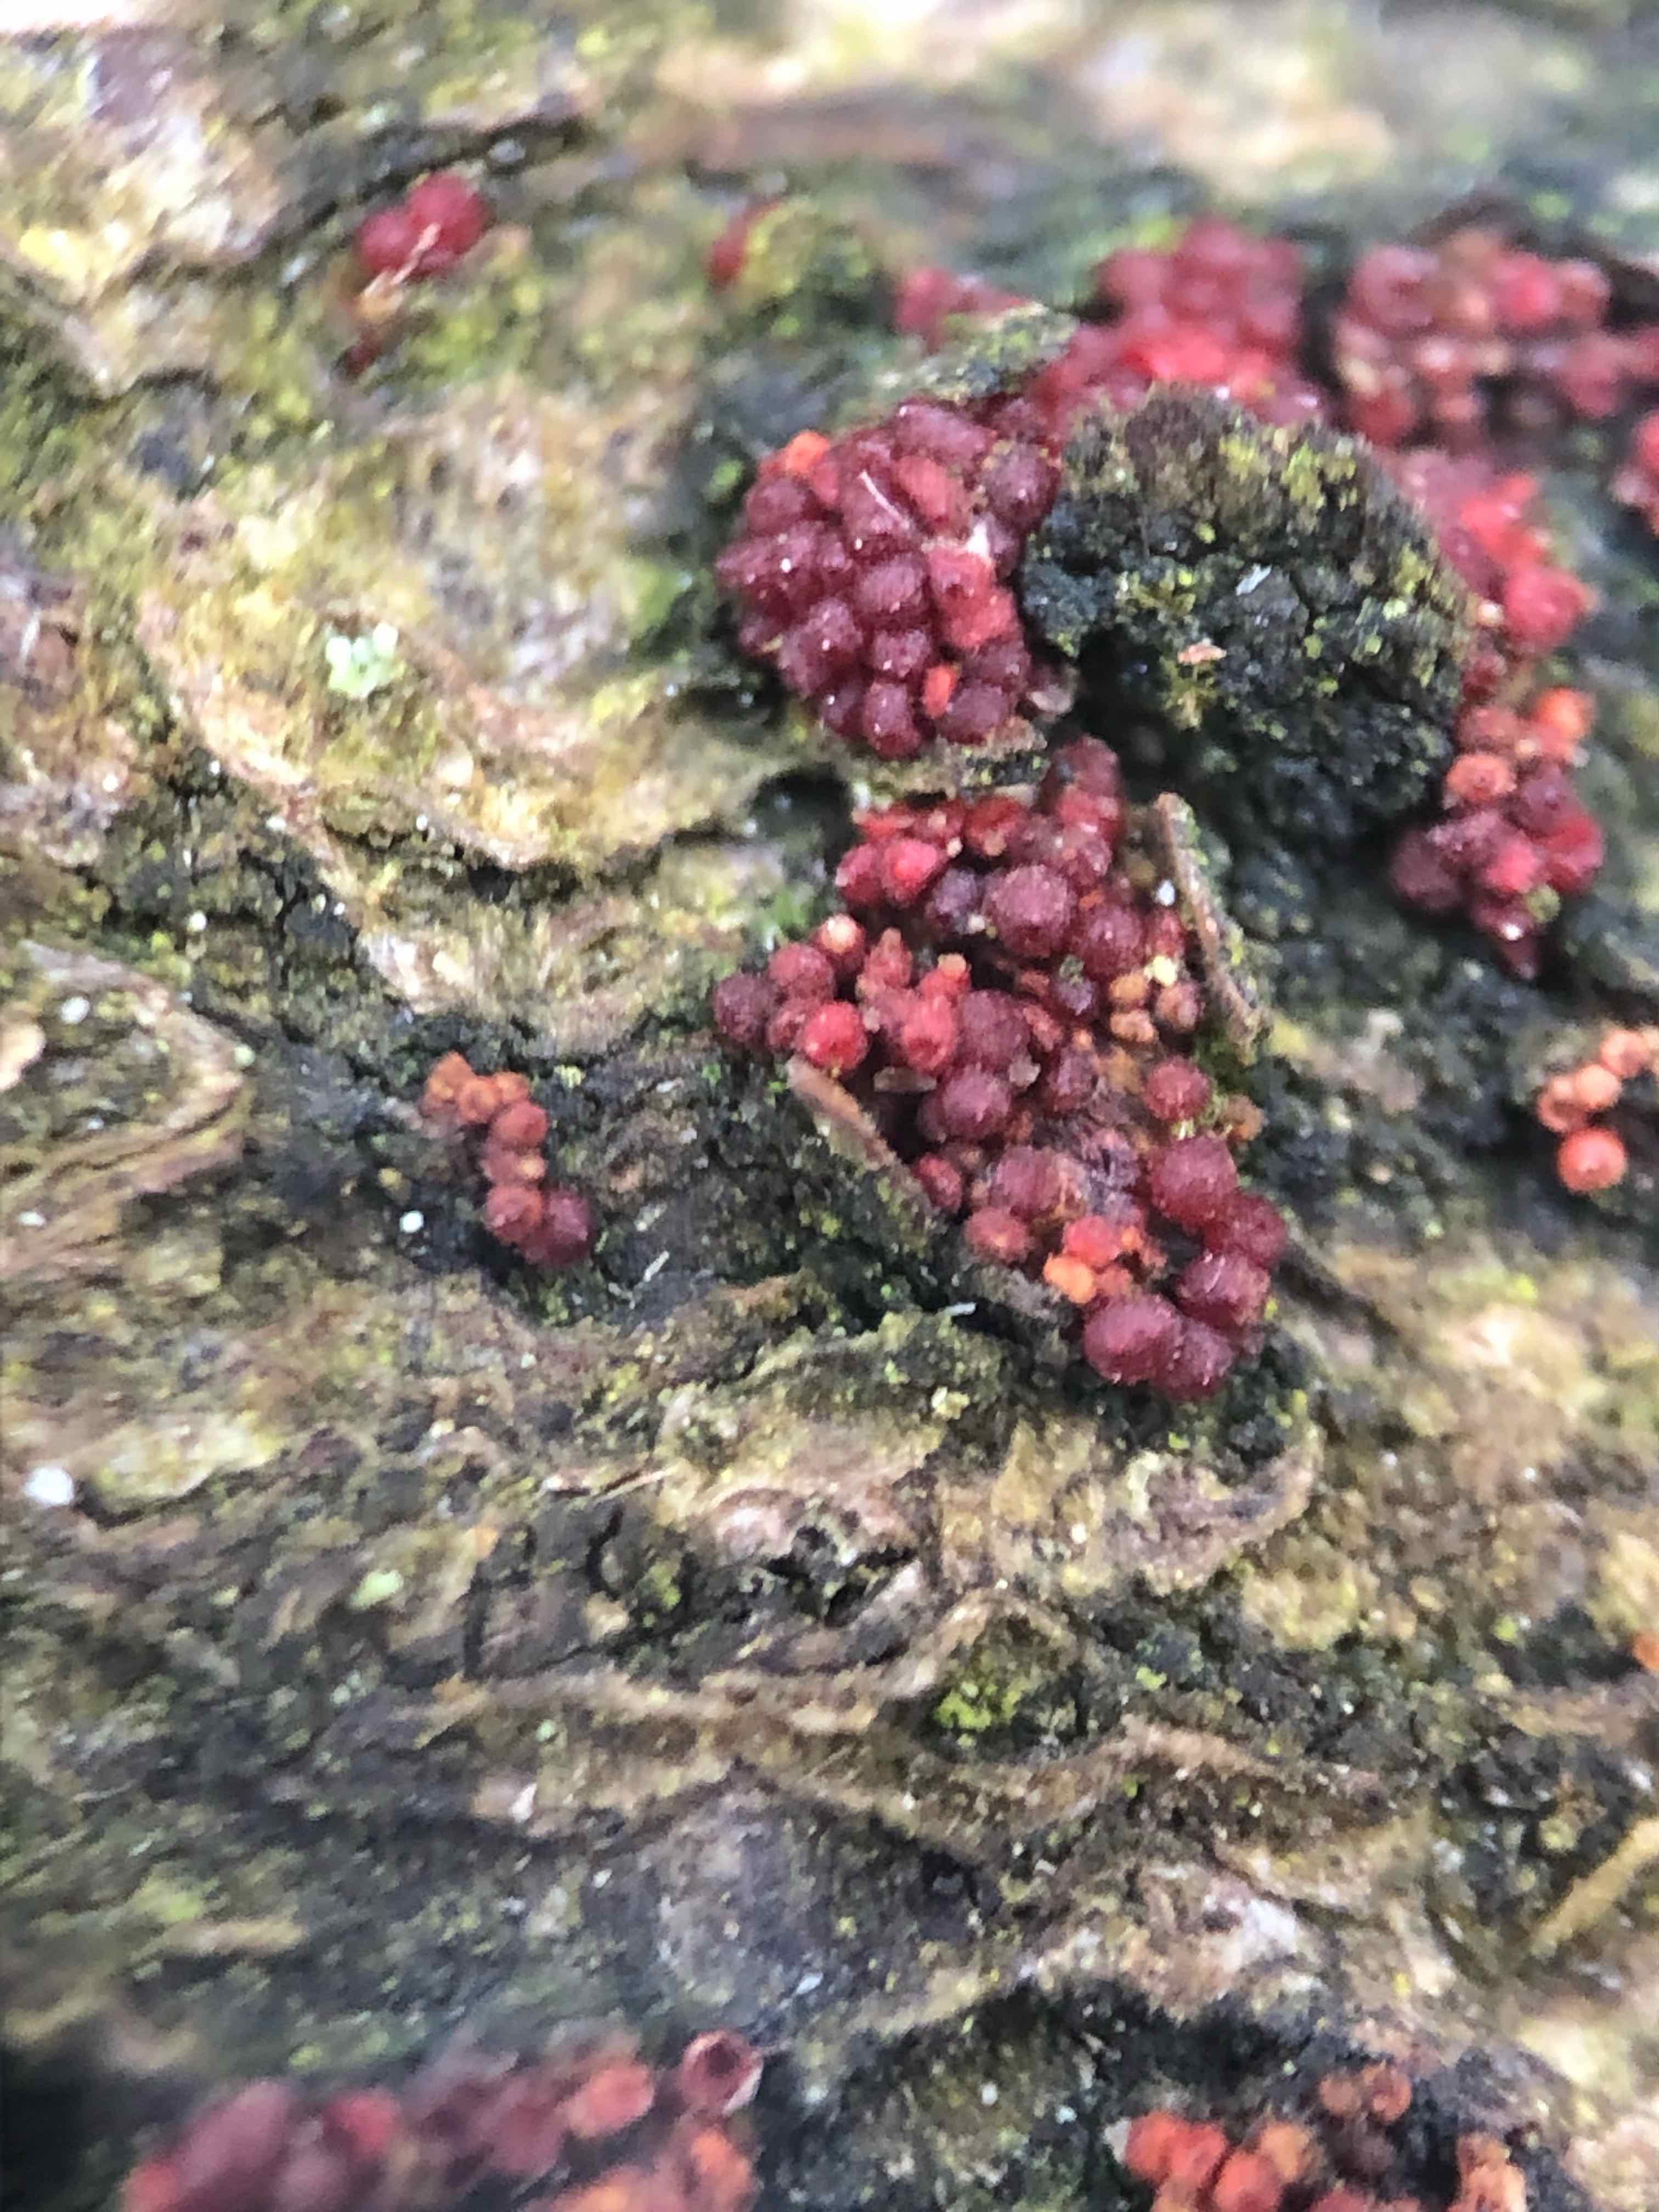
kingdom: Fungi
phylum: Ascomycota
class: Sordariomycetes
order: Hypocreales
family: Nectriaceae
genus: Neonectria
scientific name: Neonectria coccinea
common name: bøgebark-cinnobersvamp
